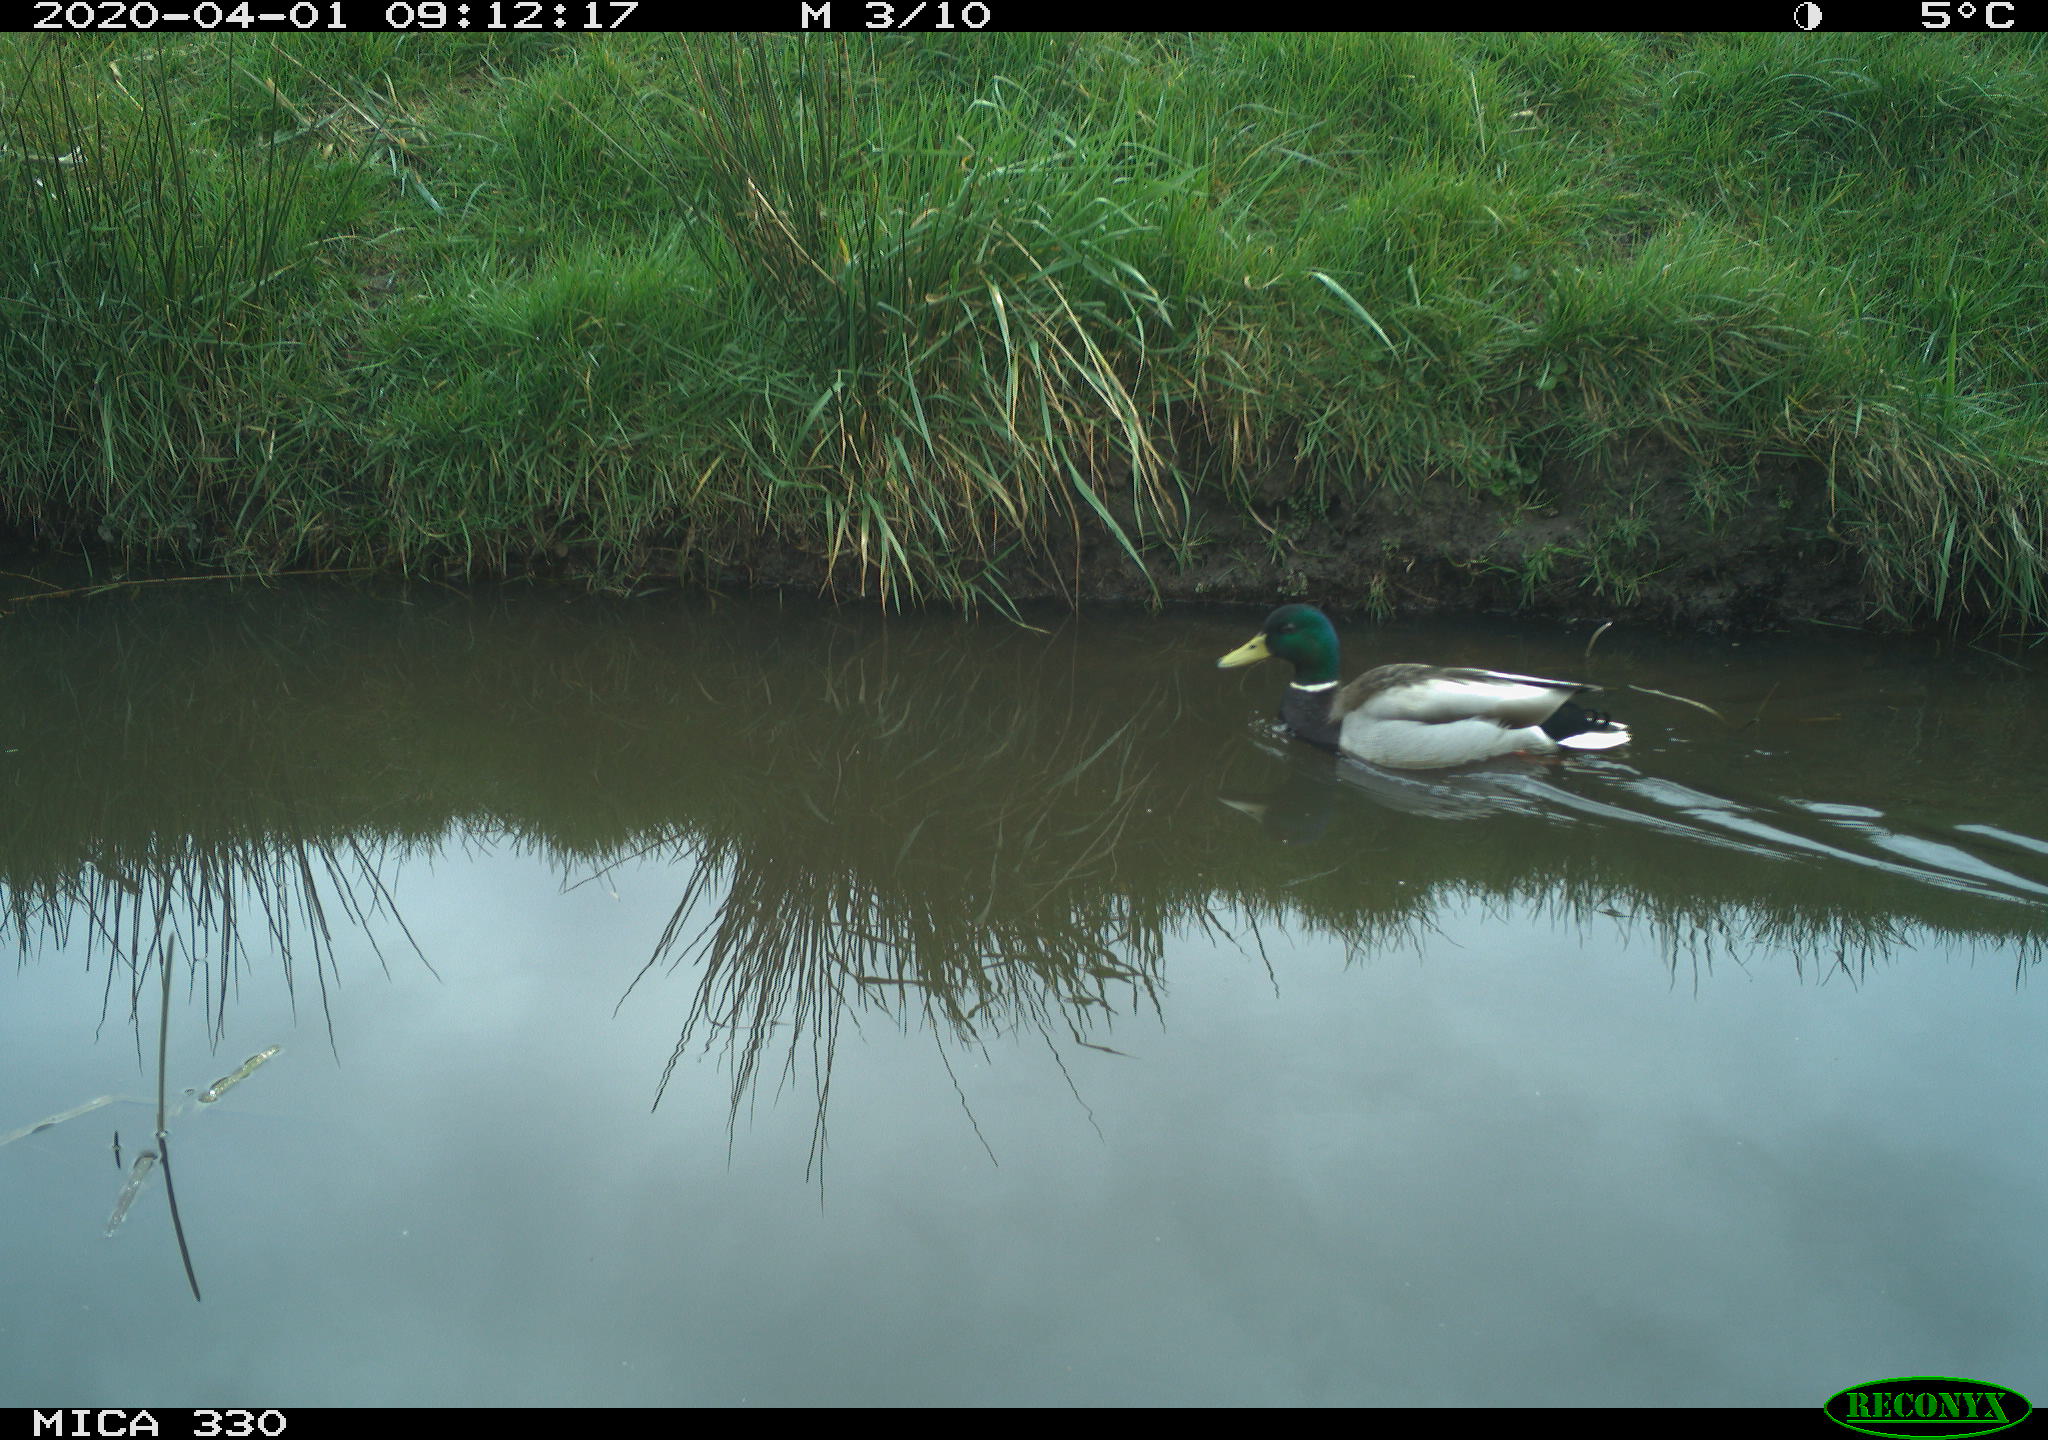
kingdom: Animalia
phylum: Chordata
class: Aves
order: Anseriformes
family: Anatidae
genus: Anas
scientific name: Anas platyrhynchos
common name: Mallard
